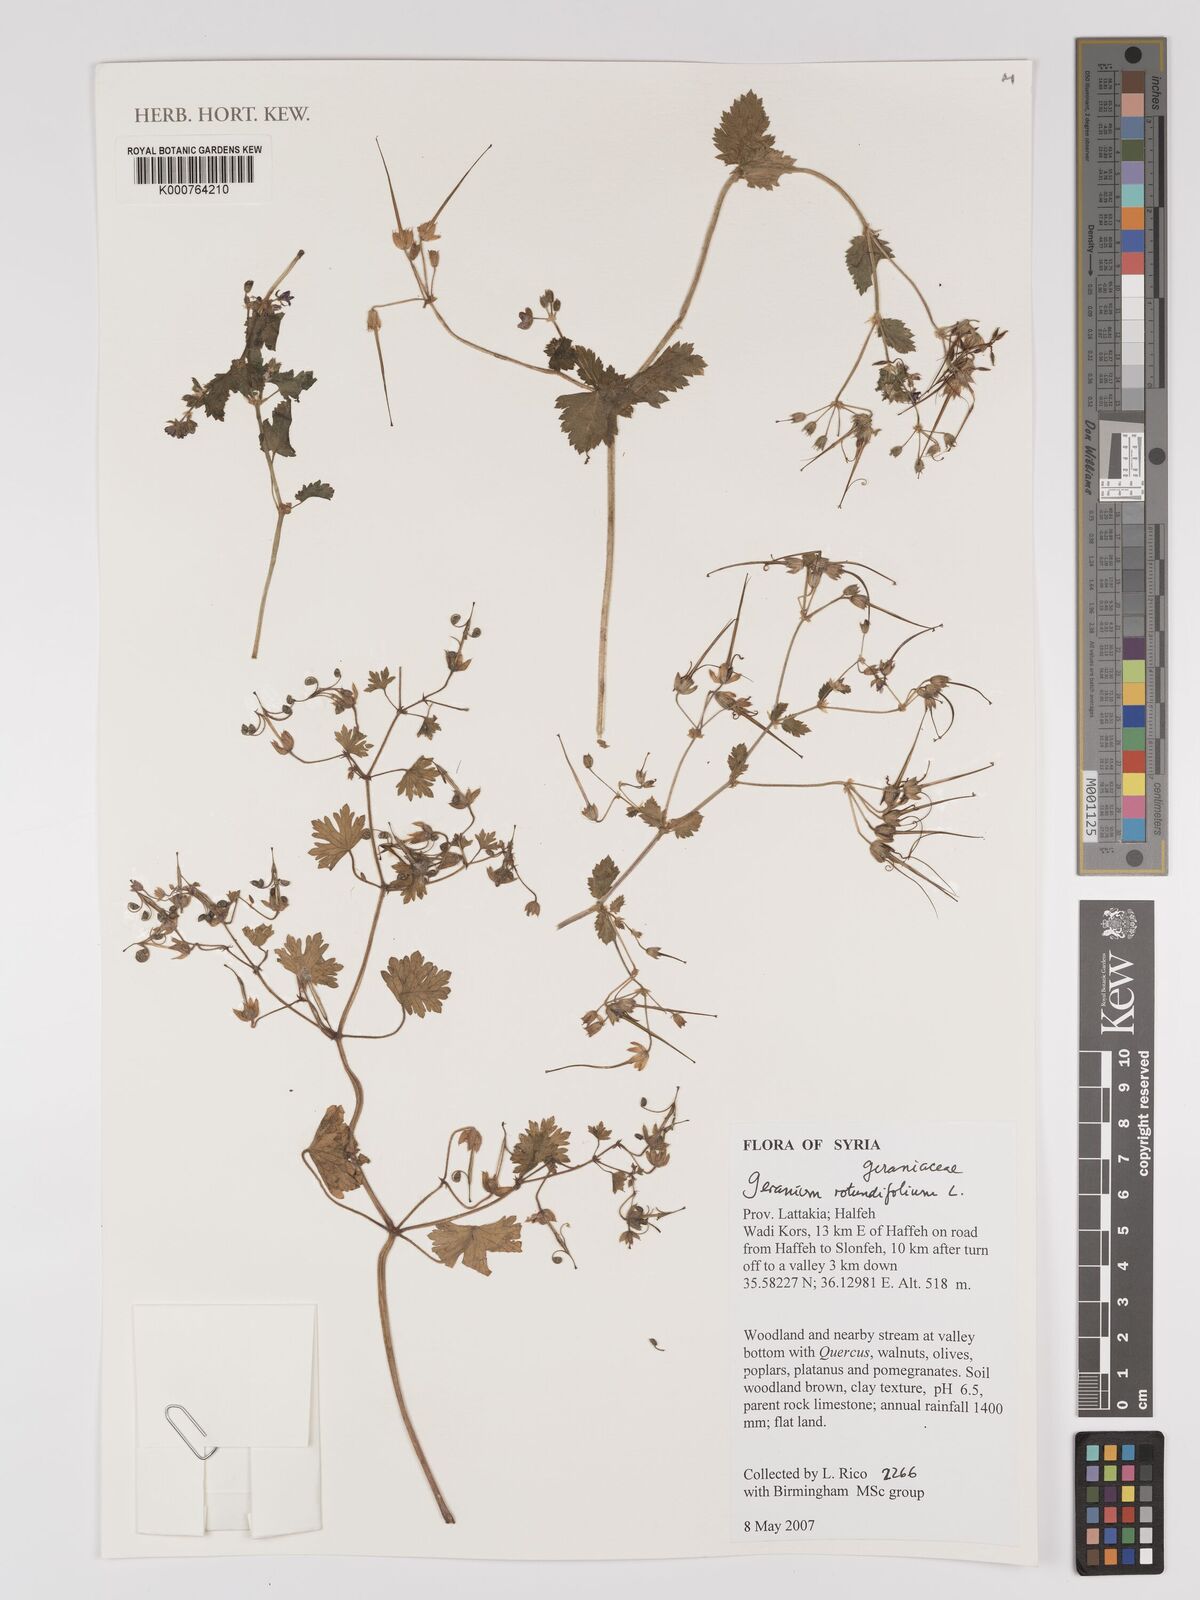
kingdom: Plantae
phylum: Tracheophyta
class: Magnoliopsida
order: Geraniales
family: Geraniaceae
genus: Geranium
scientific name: Geranium rotundifolium
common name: Round-leaved crane's-bill
